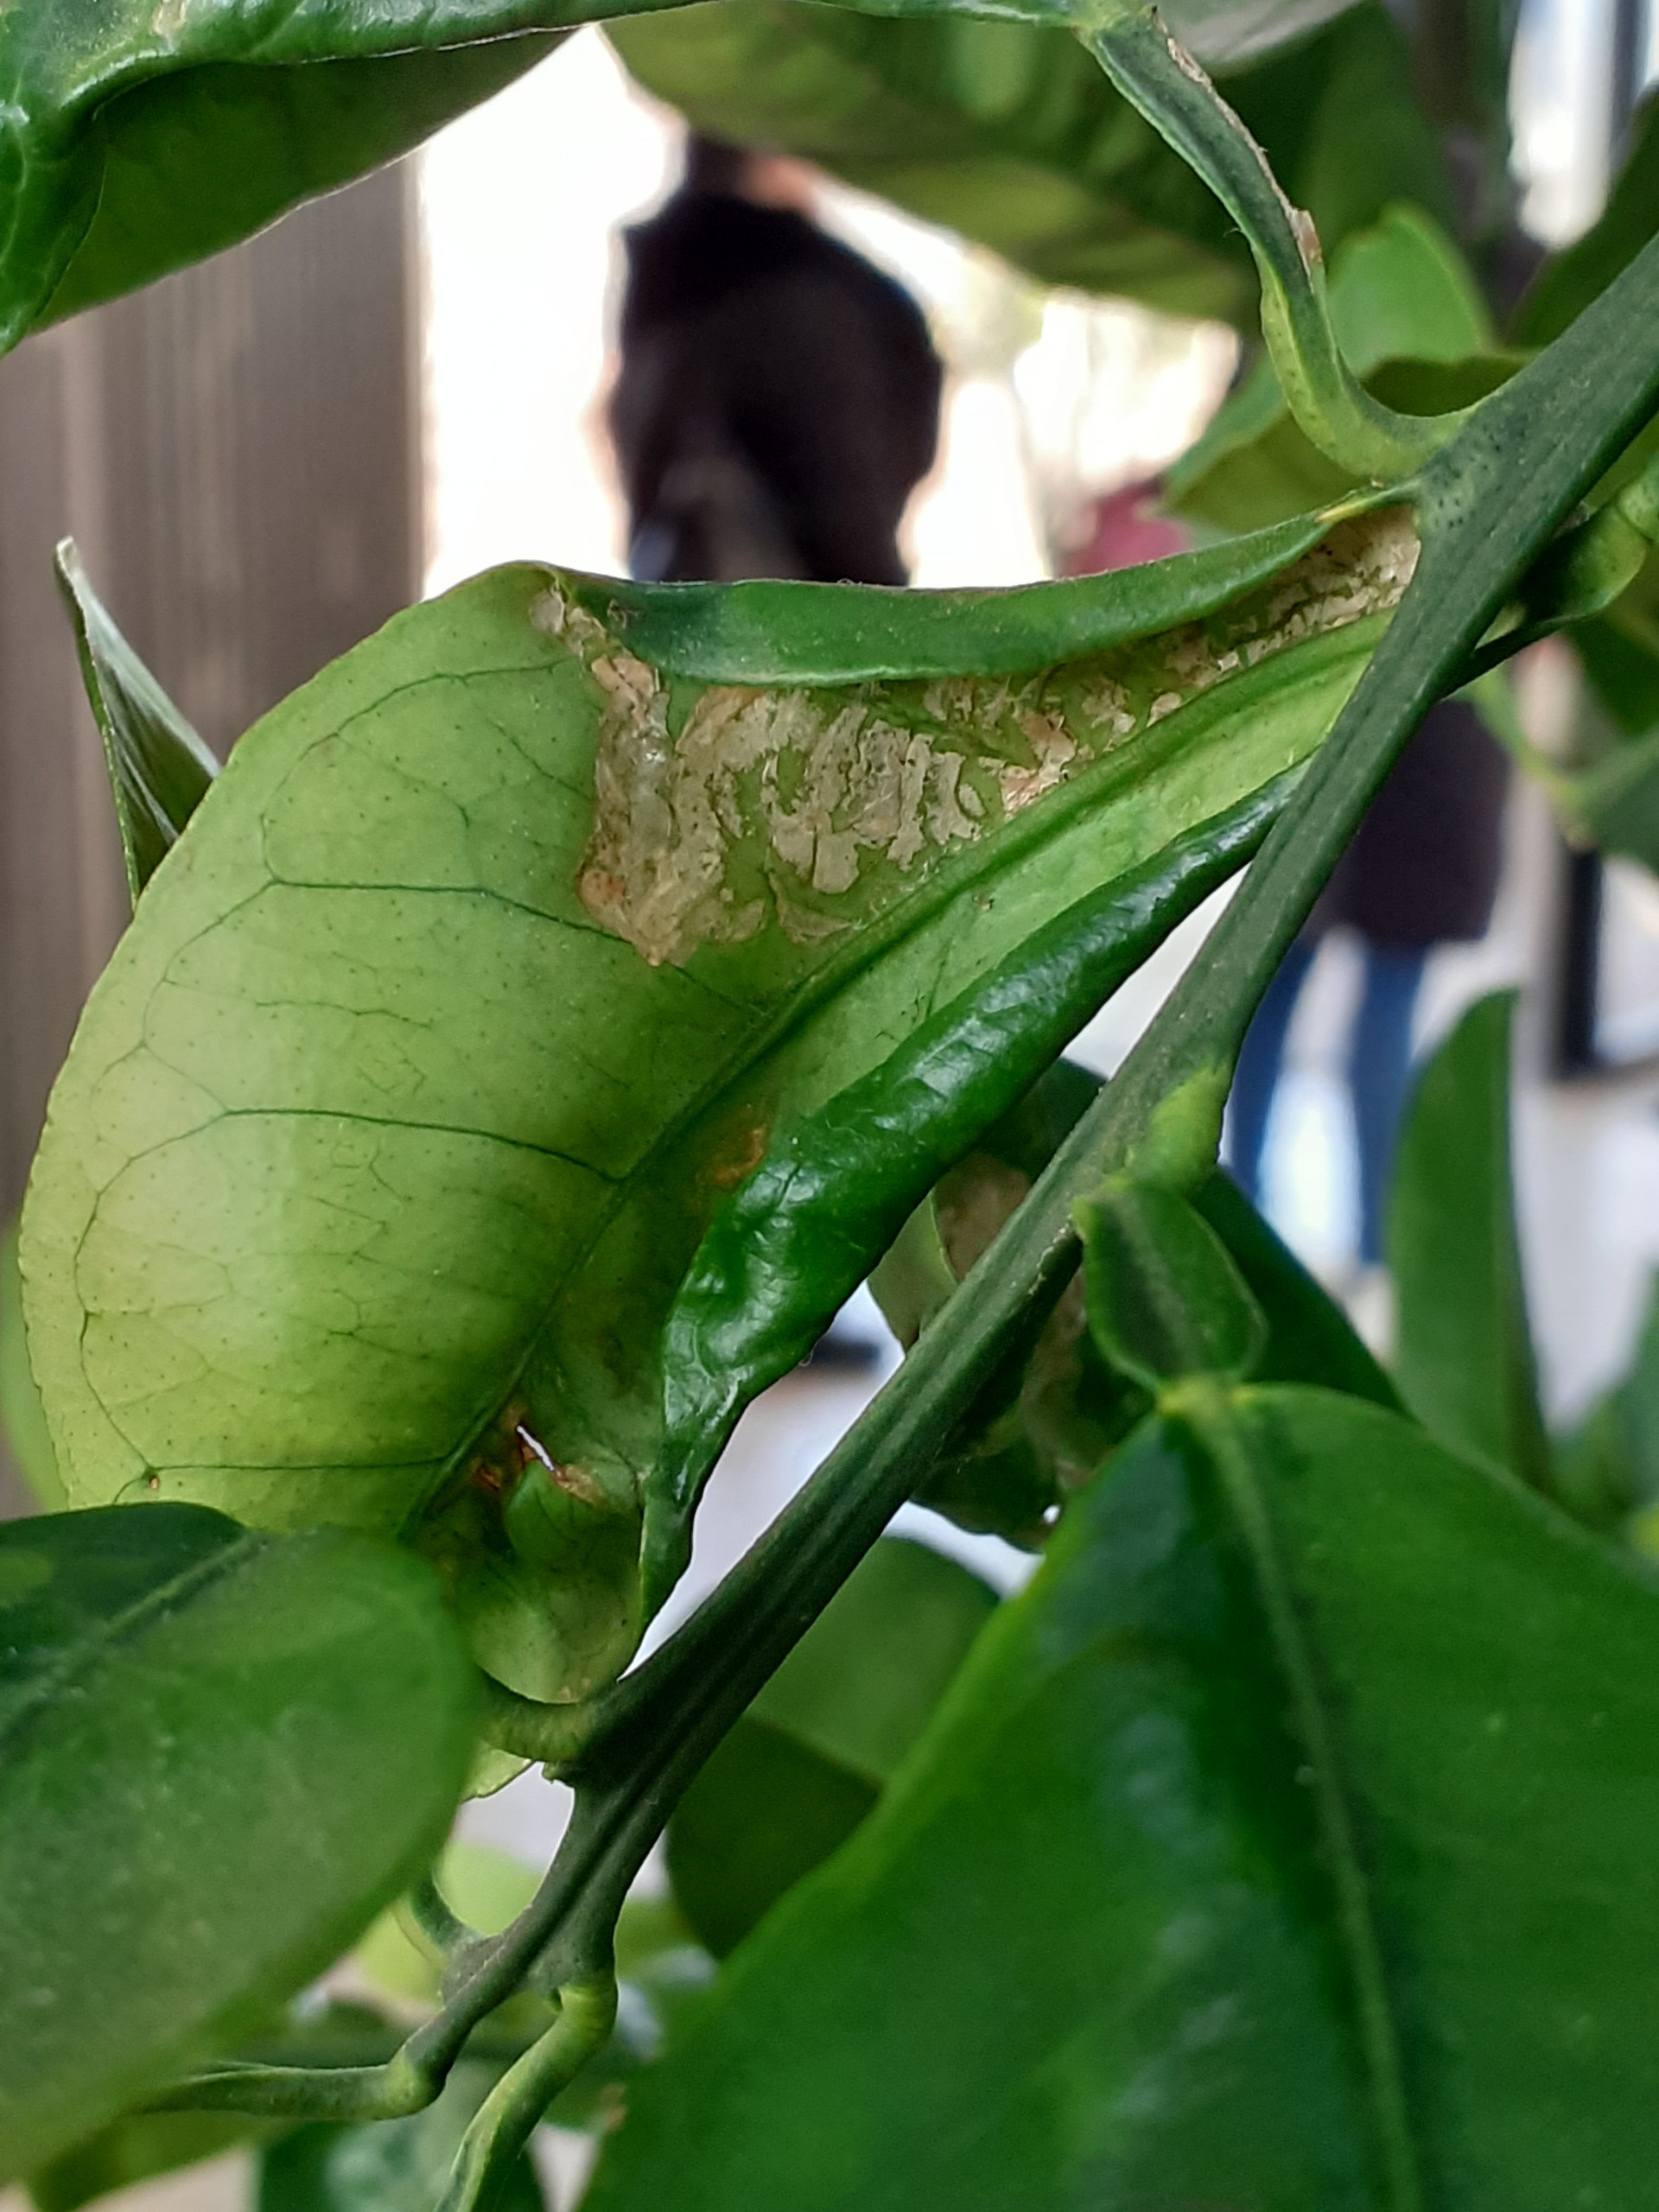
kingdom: Animalia
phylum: Arthropoda
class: Insecta
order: Lepidoptera
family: Gracillariidae
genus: Phyllocnistis
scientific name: Phyllocnistis citrella
